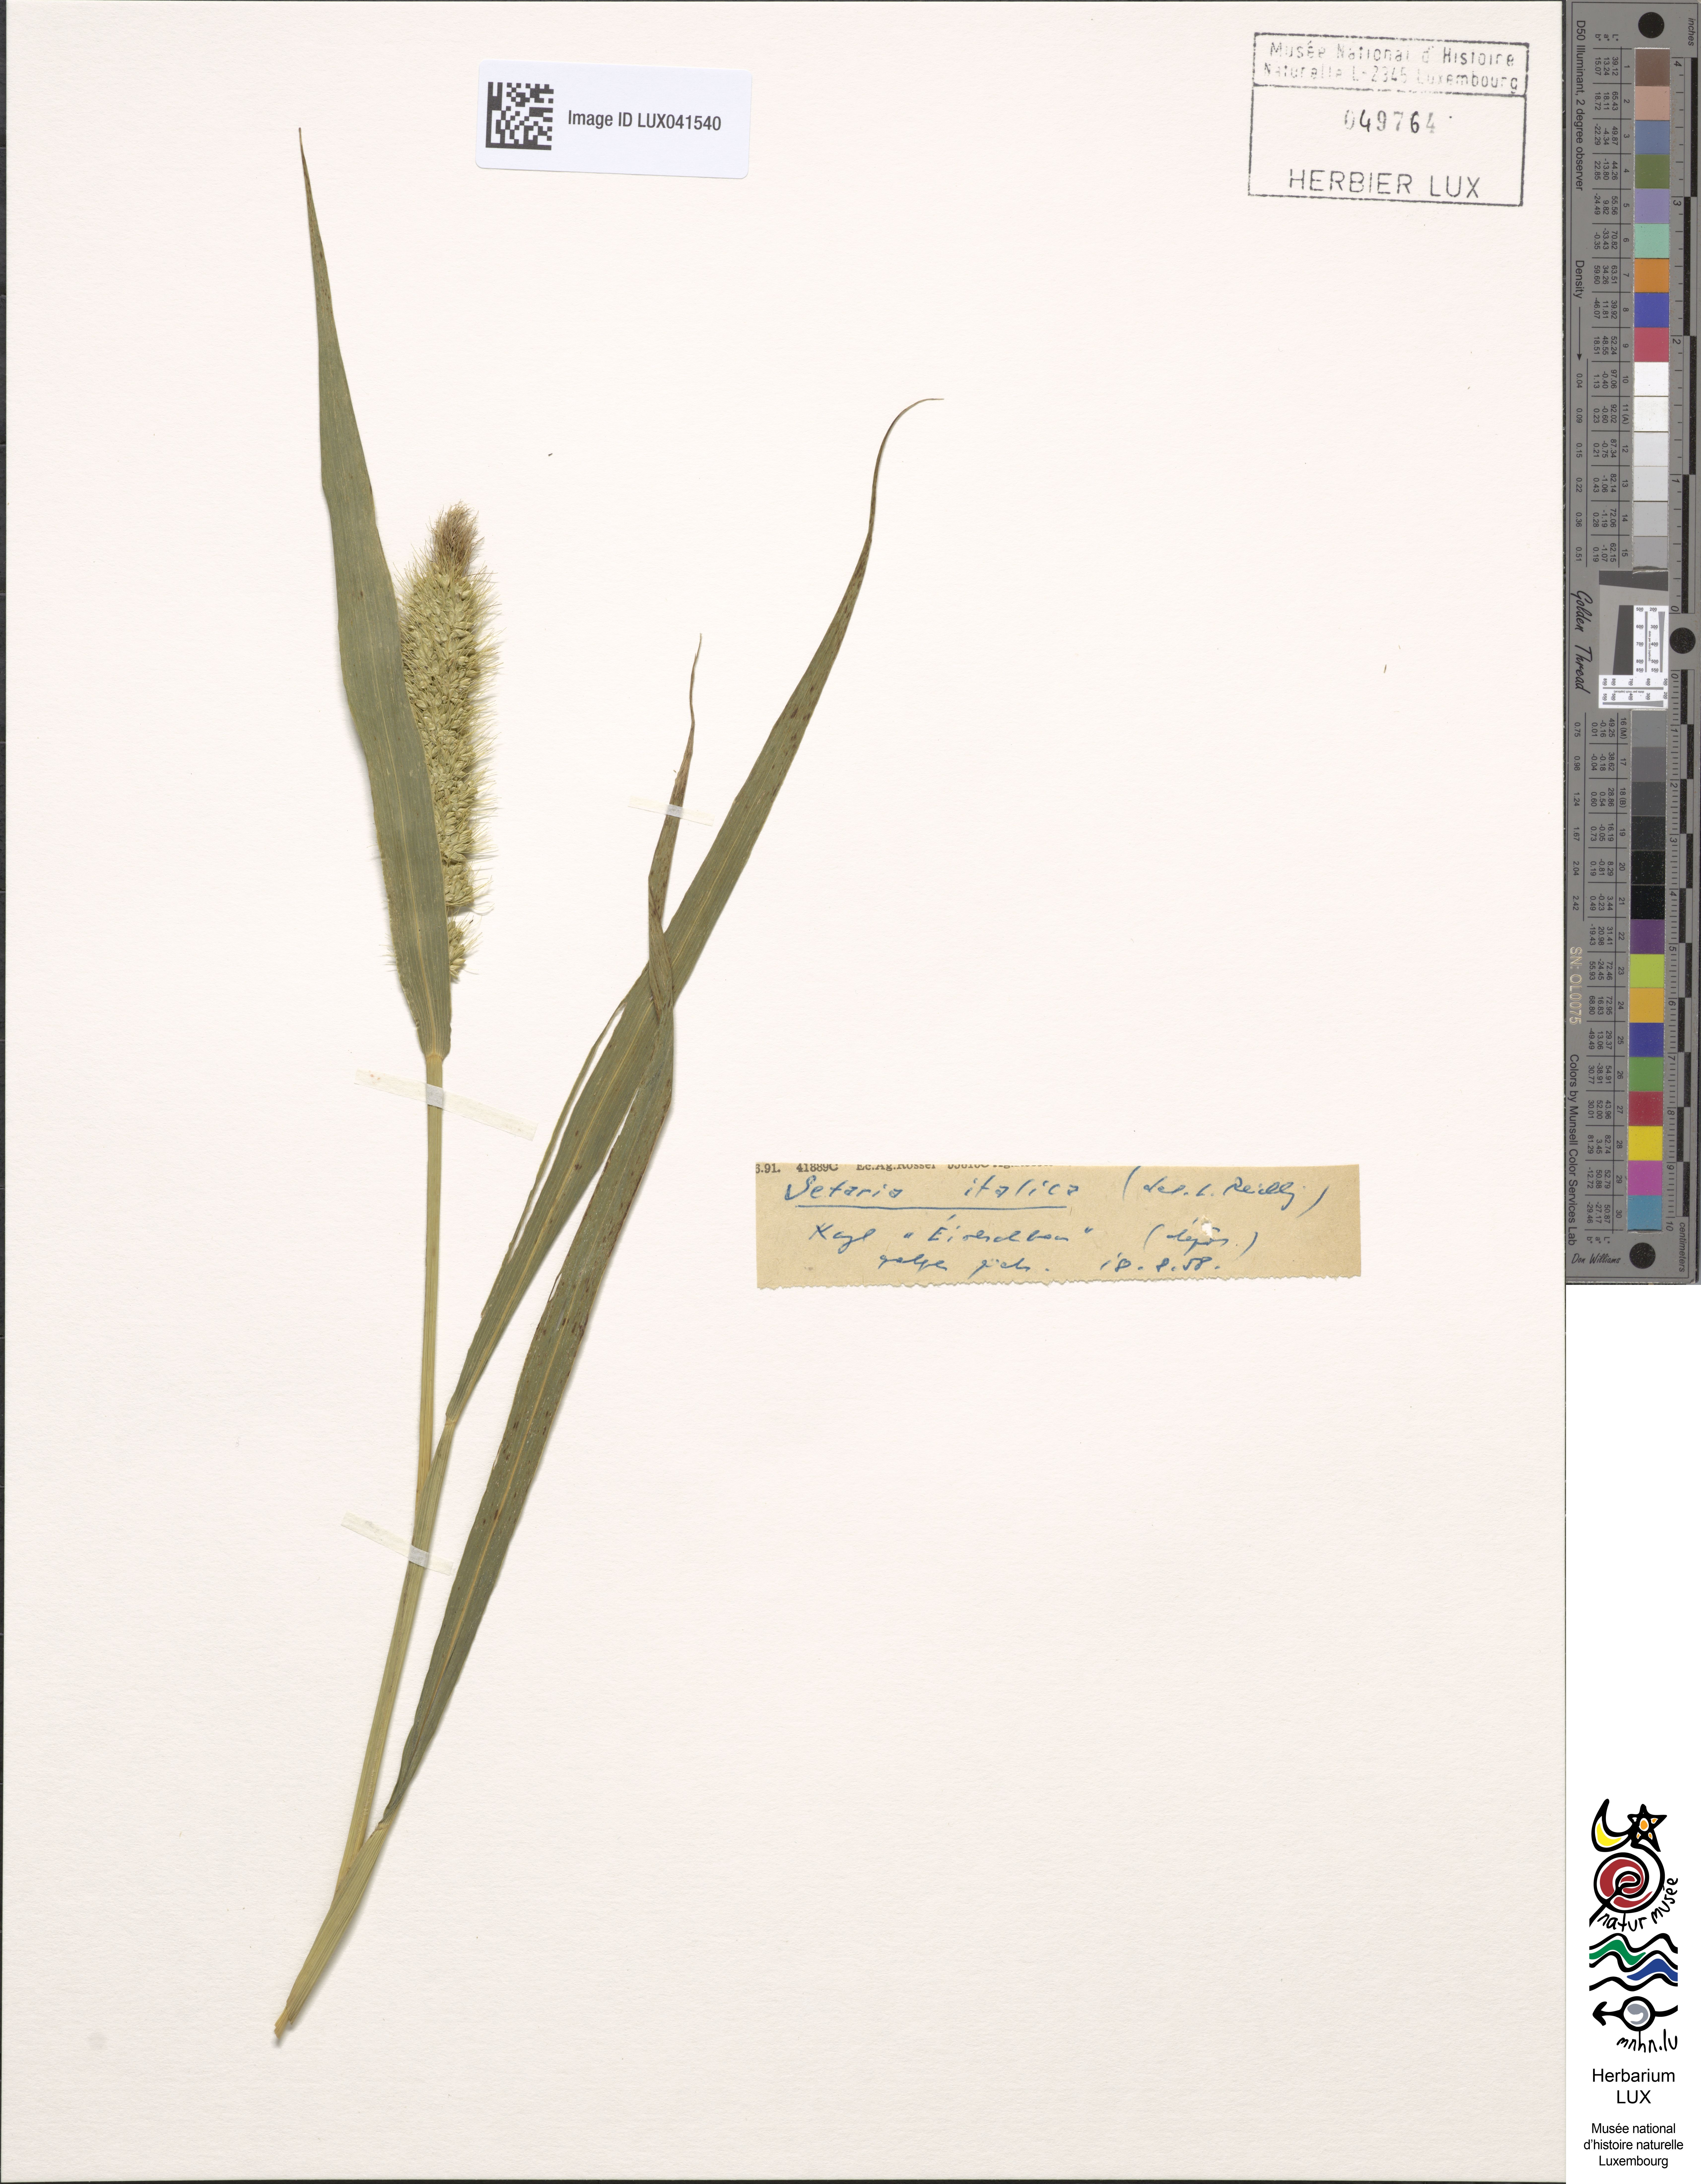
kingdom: Plantae
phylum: Tracheophyta
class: Liliopsida
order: Poales
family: Poaceae
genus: Setaria
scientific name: Setaria italica
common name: Foxtail bristle-grass
